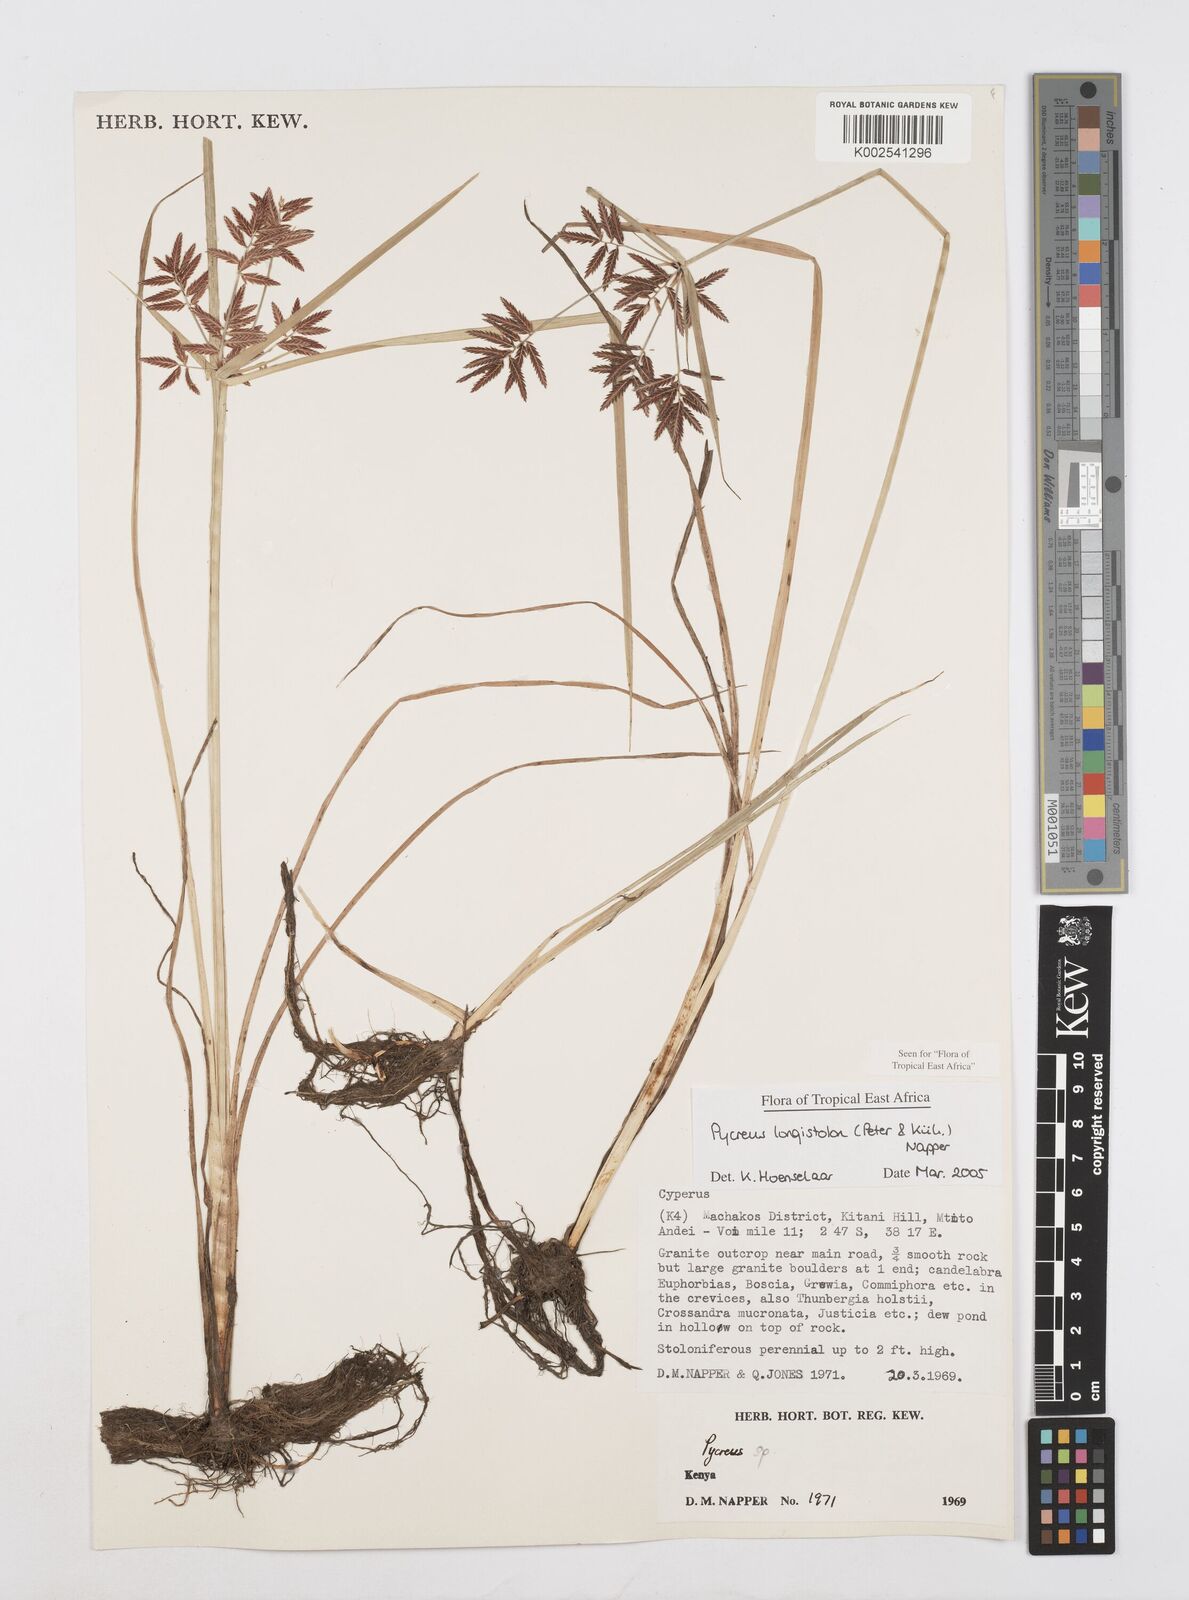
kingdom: Plantae
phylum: Tracheophyta
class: Liliopsida
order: Poales
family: Cyperaceae
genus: Cyperus
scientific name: Cyperus chrysanthus
